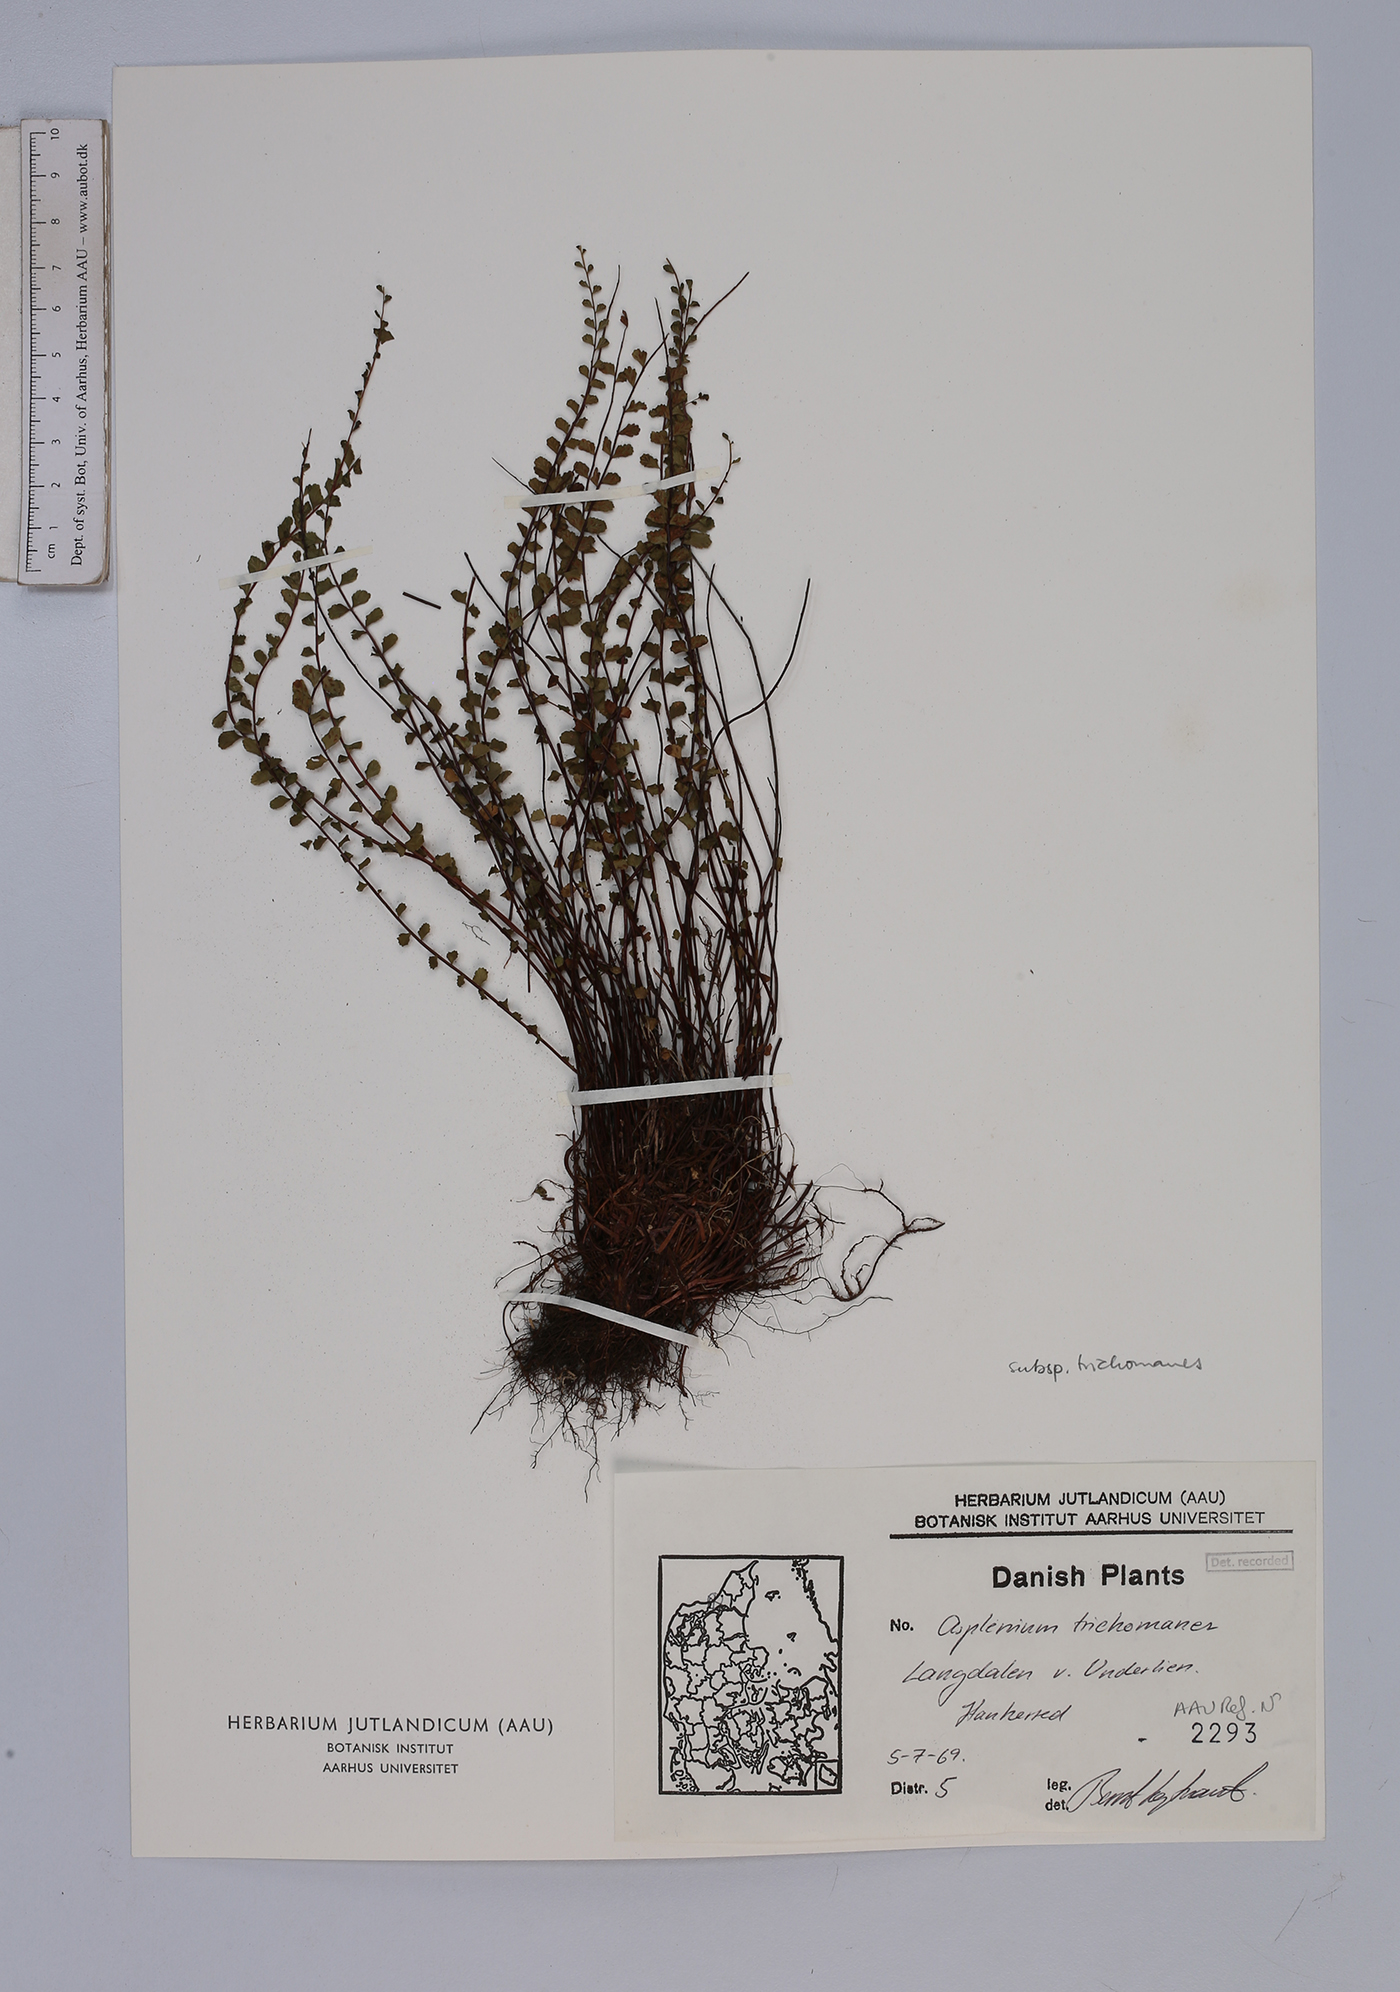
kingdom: Plantae
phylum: Tracheophyta
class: Polypodiopsida
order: Polypodiales
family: Aspleniaceae
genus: Asplenium
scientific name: Asplenium trichomanes
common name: Maidenhair spleenwort
